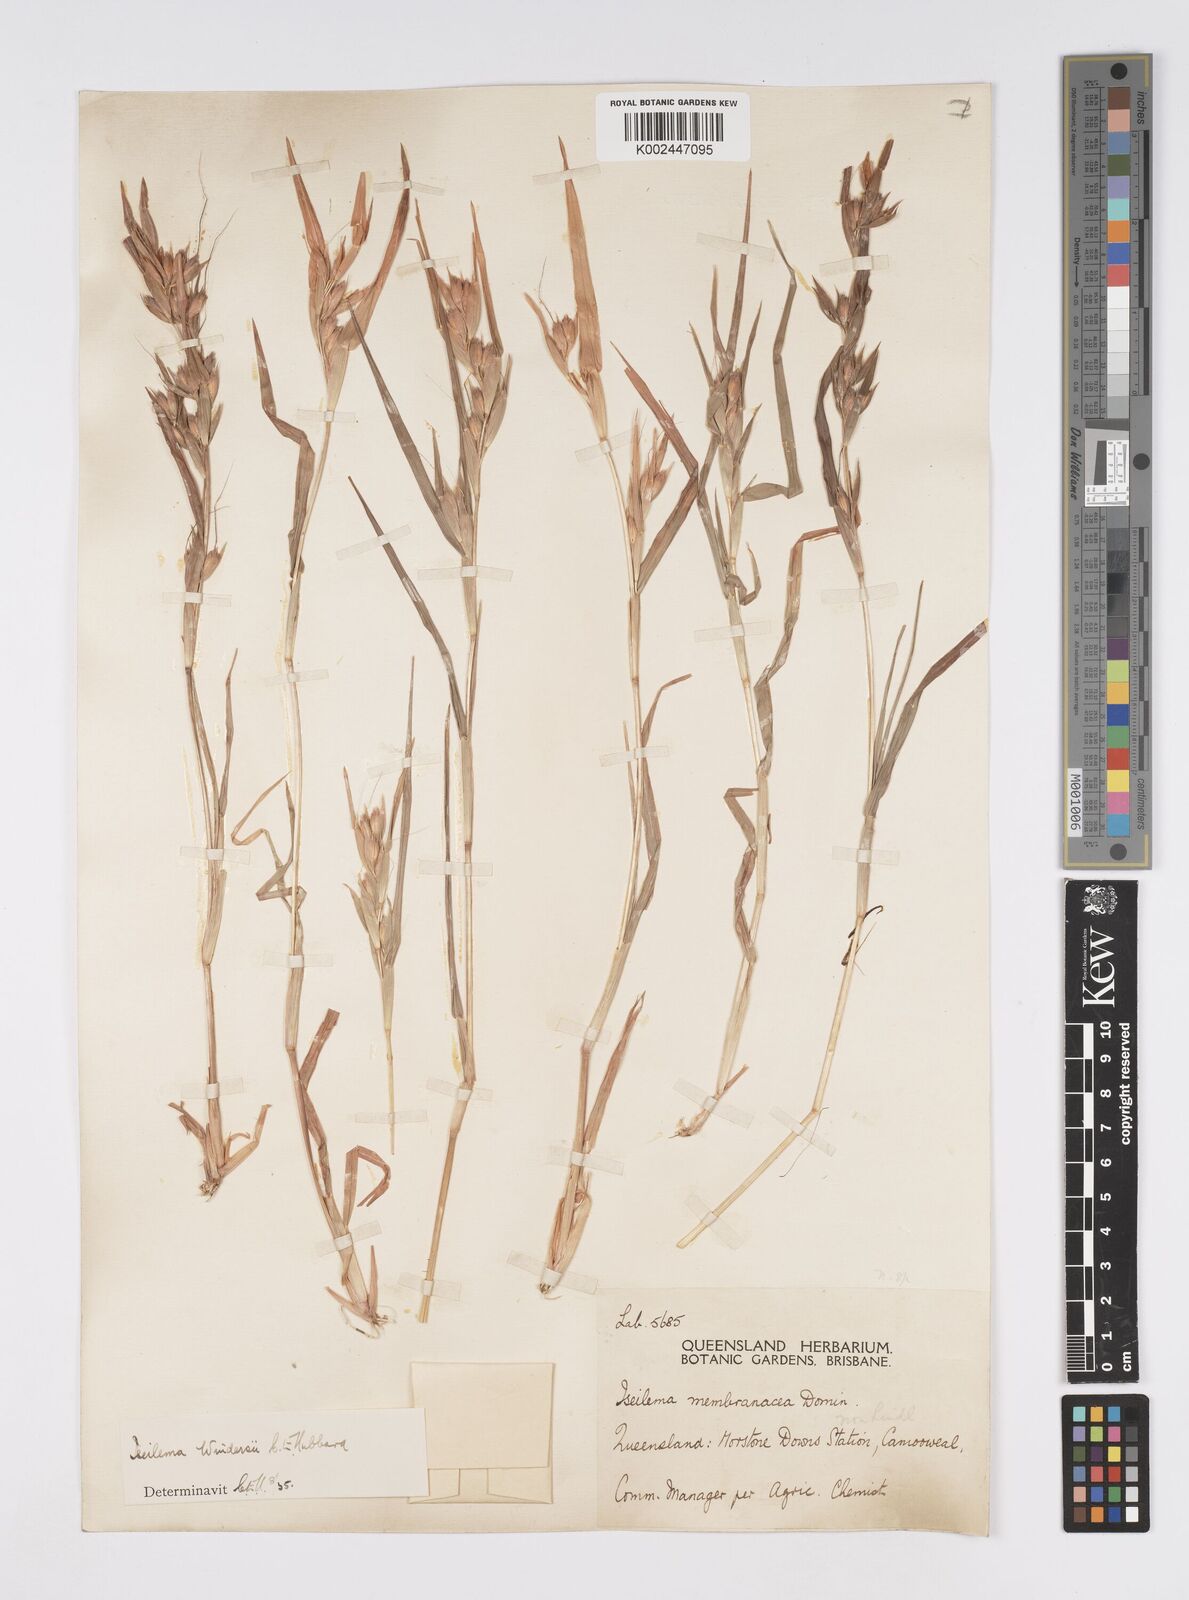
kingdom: Plantae
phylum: Tracheophyta
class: Liliopsida
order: Poales
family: Poaceae
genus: Iseilema
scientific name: Iseilema windersii
